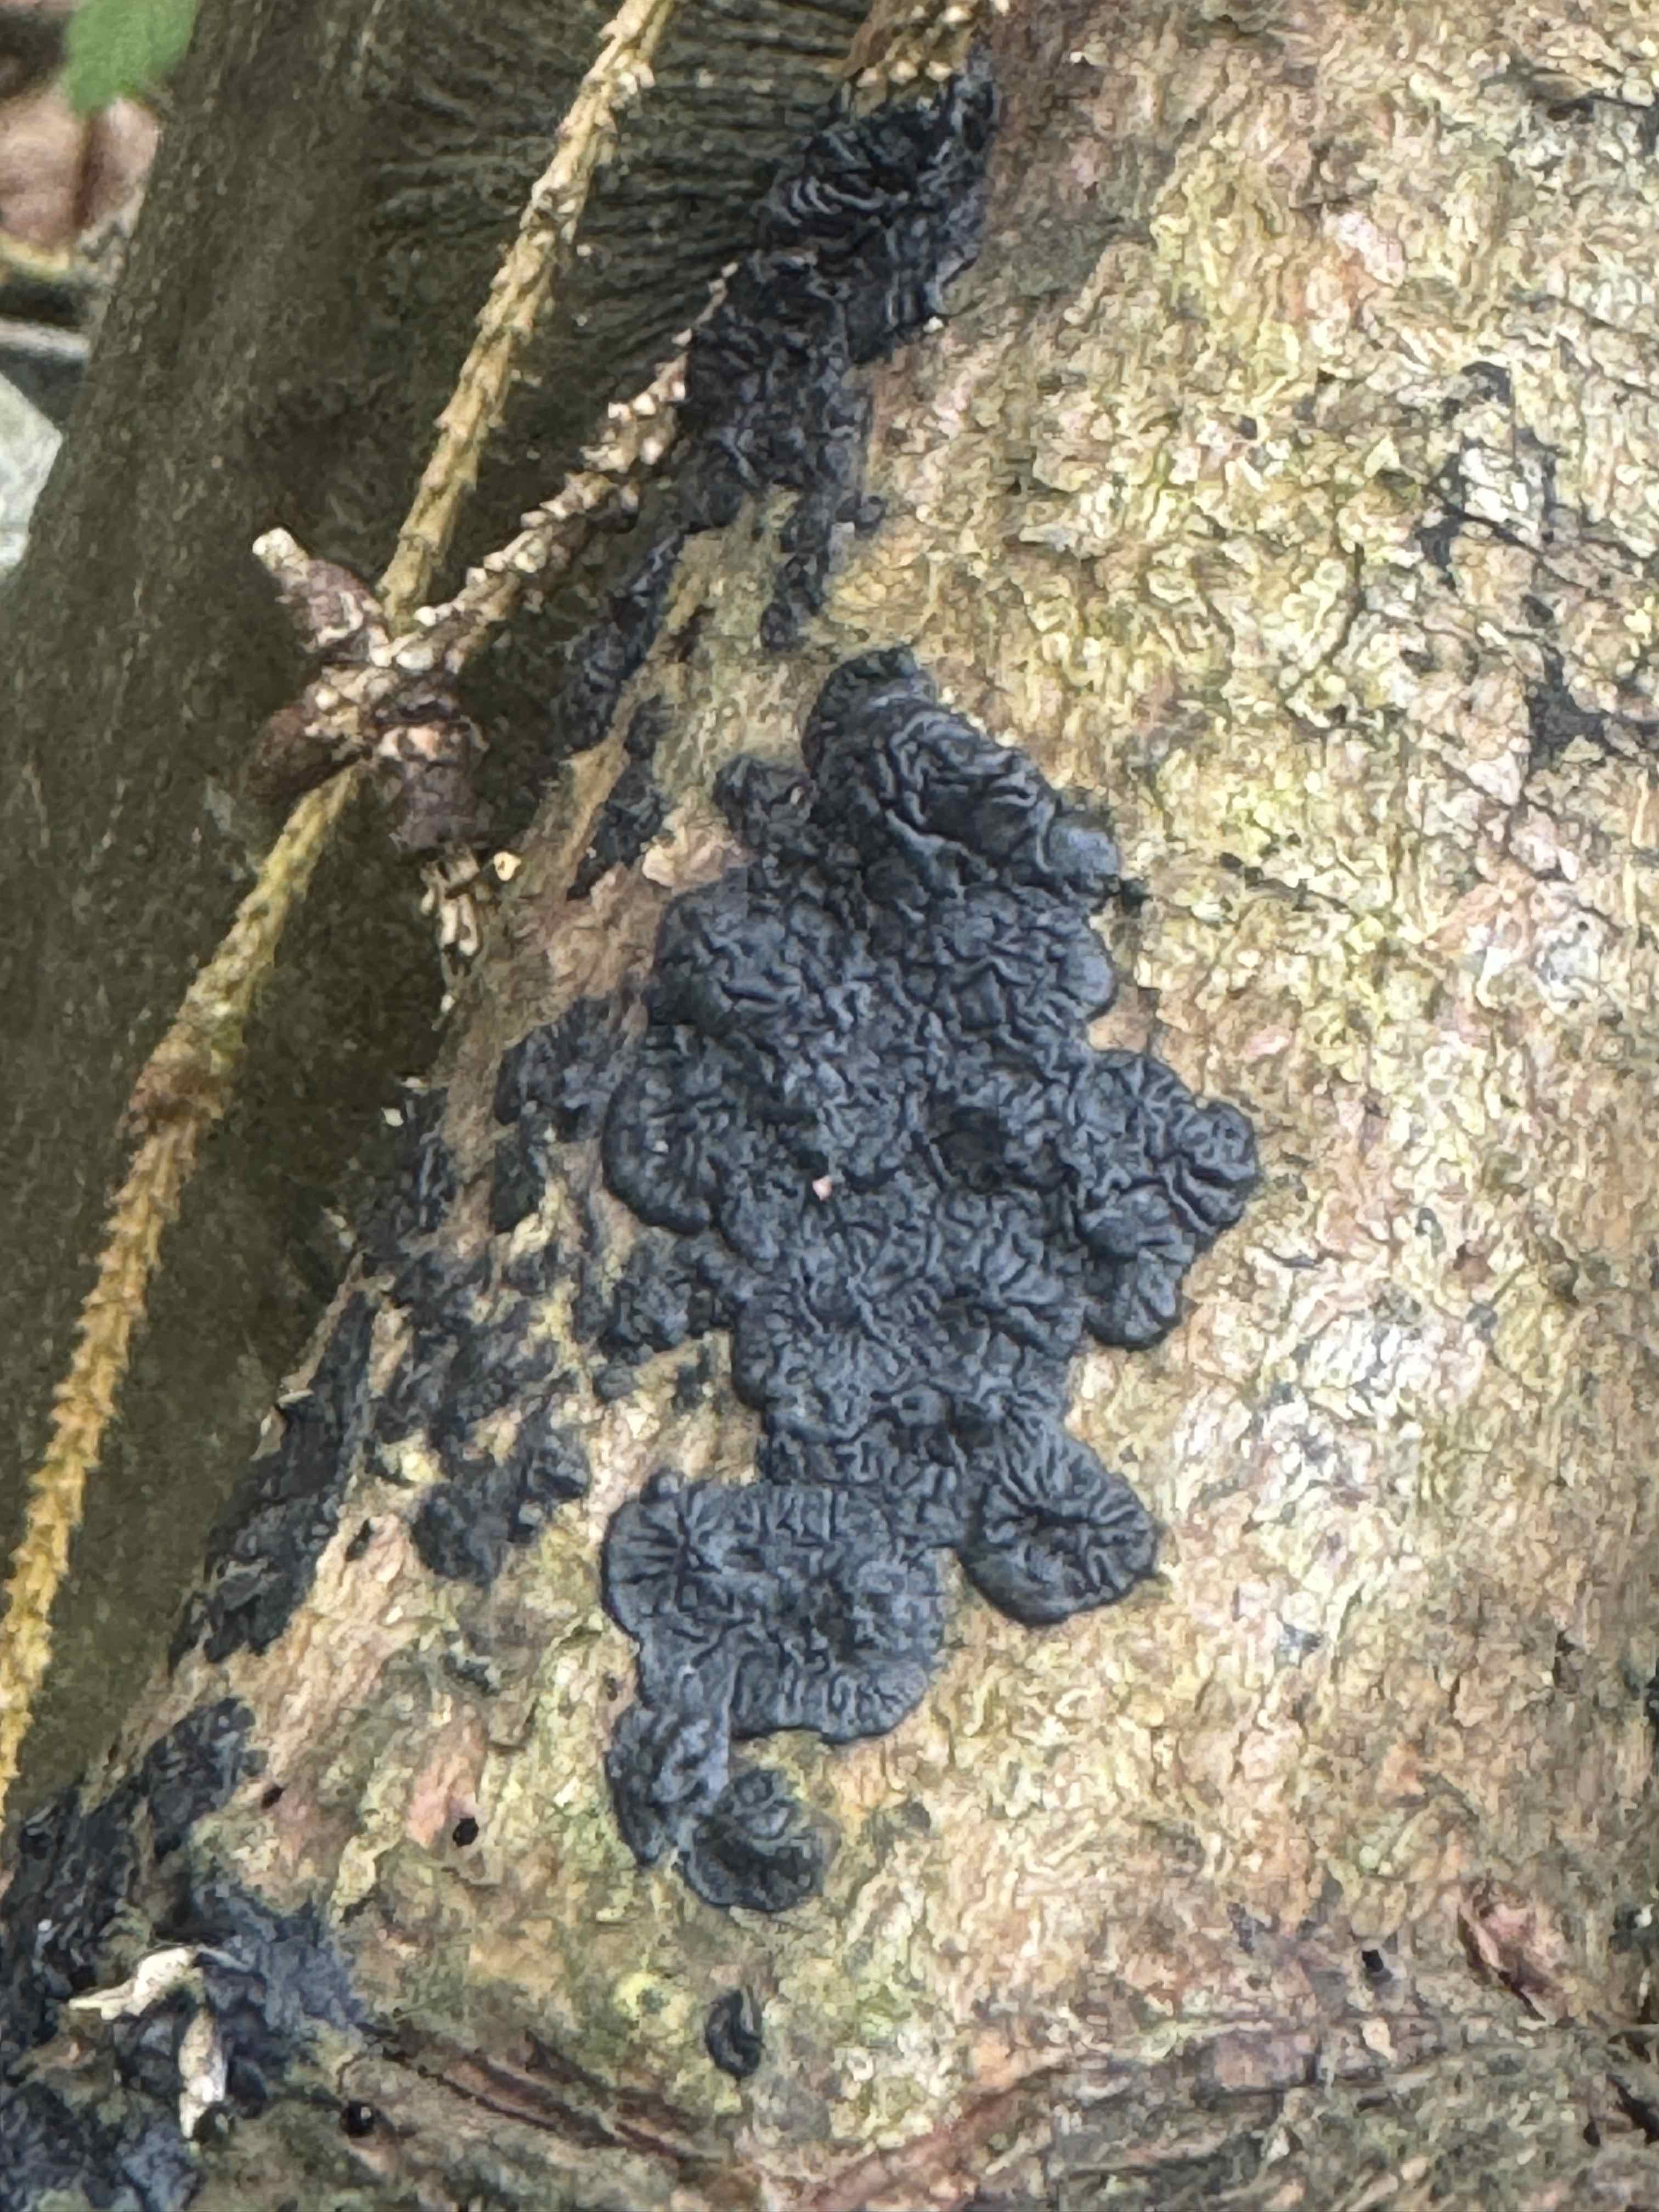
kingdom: Fungi
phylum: Basidiomycota
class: Agaricomycetes
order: Auriculariales
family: Auriculariaceae
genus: Exidia
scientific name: Exidia pithya
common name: gran-bævretop
